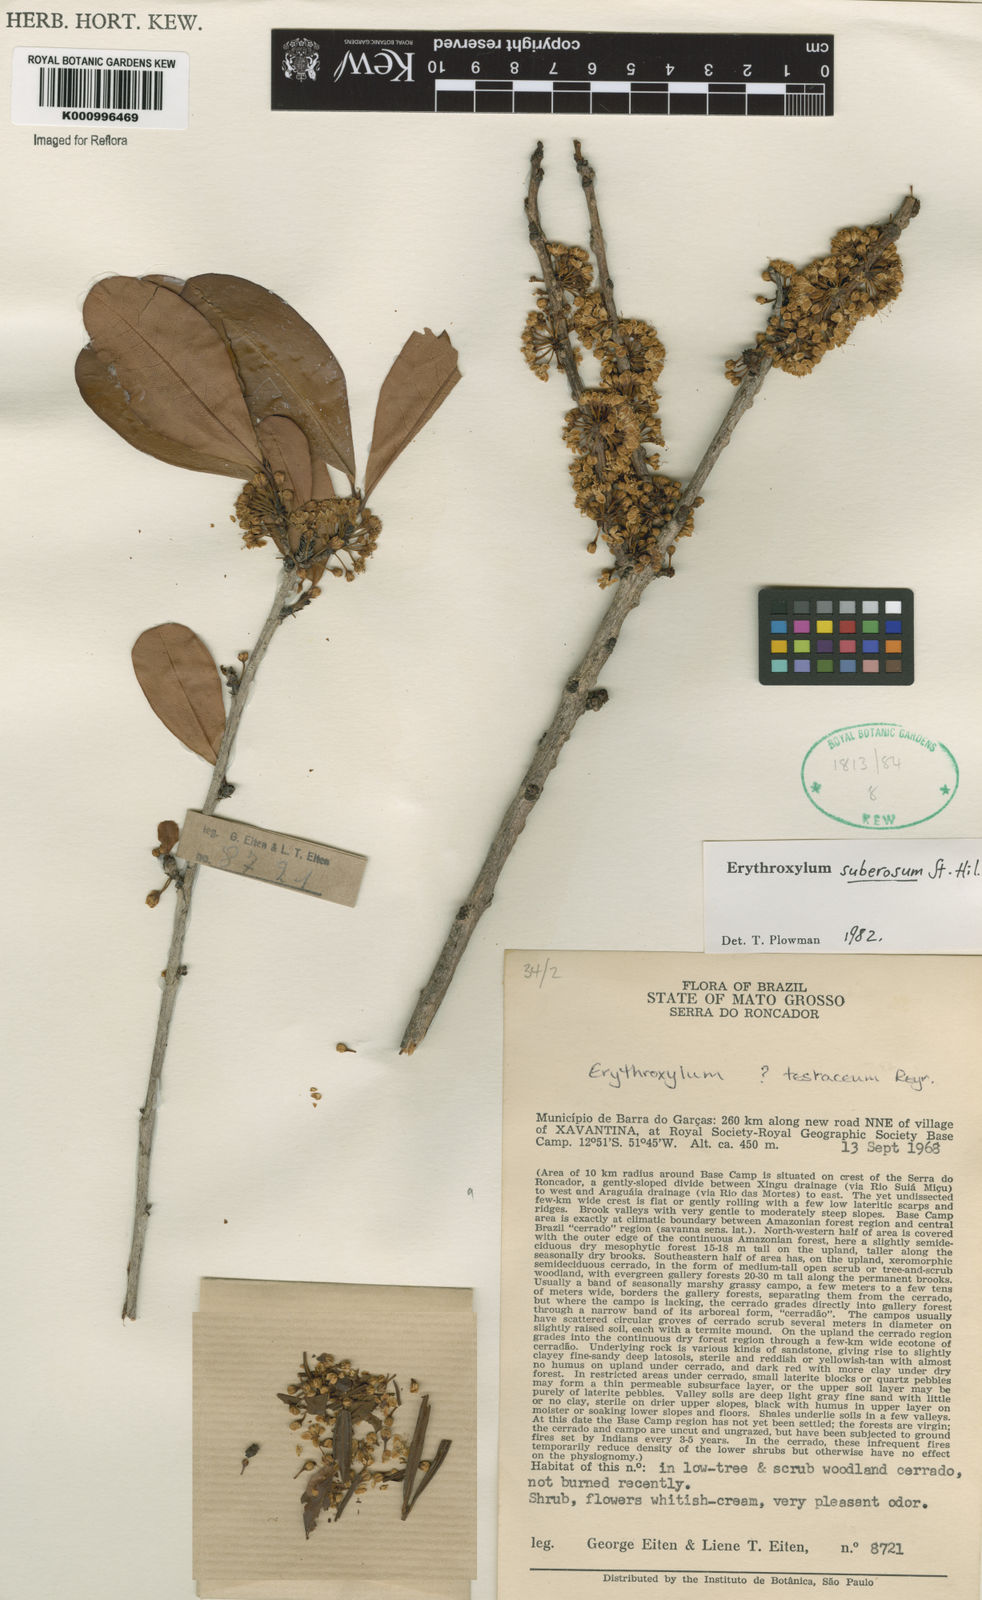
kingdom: Plantae
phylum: Tracheophyta
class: Magnoliopsida
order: Malpighiales
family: Erythroxylaceae
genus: Erythroxylum
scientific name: Erythroxylum suberosum
